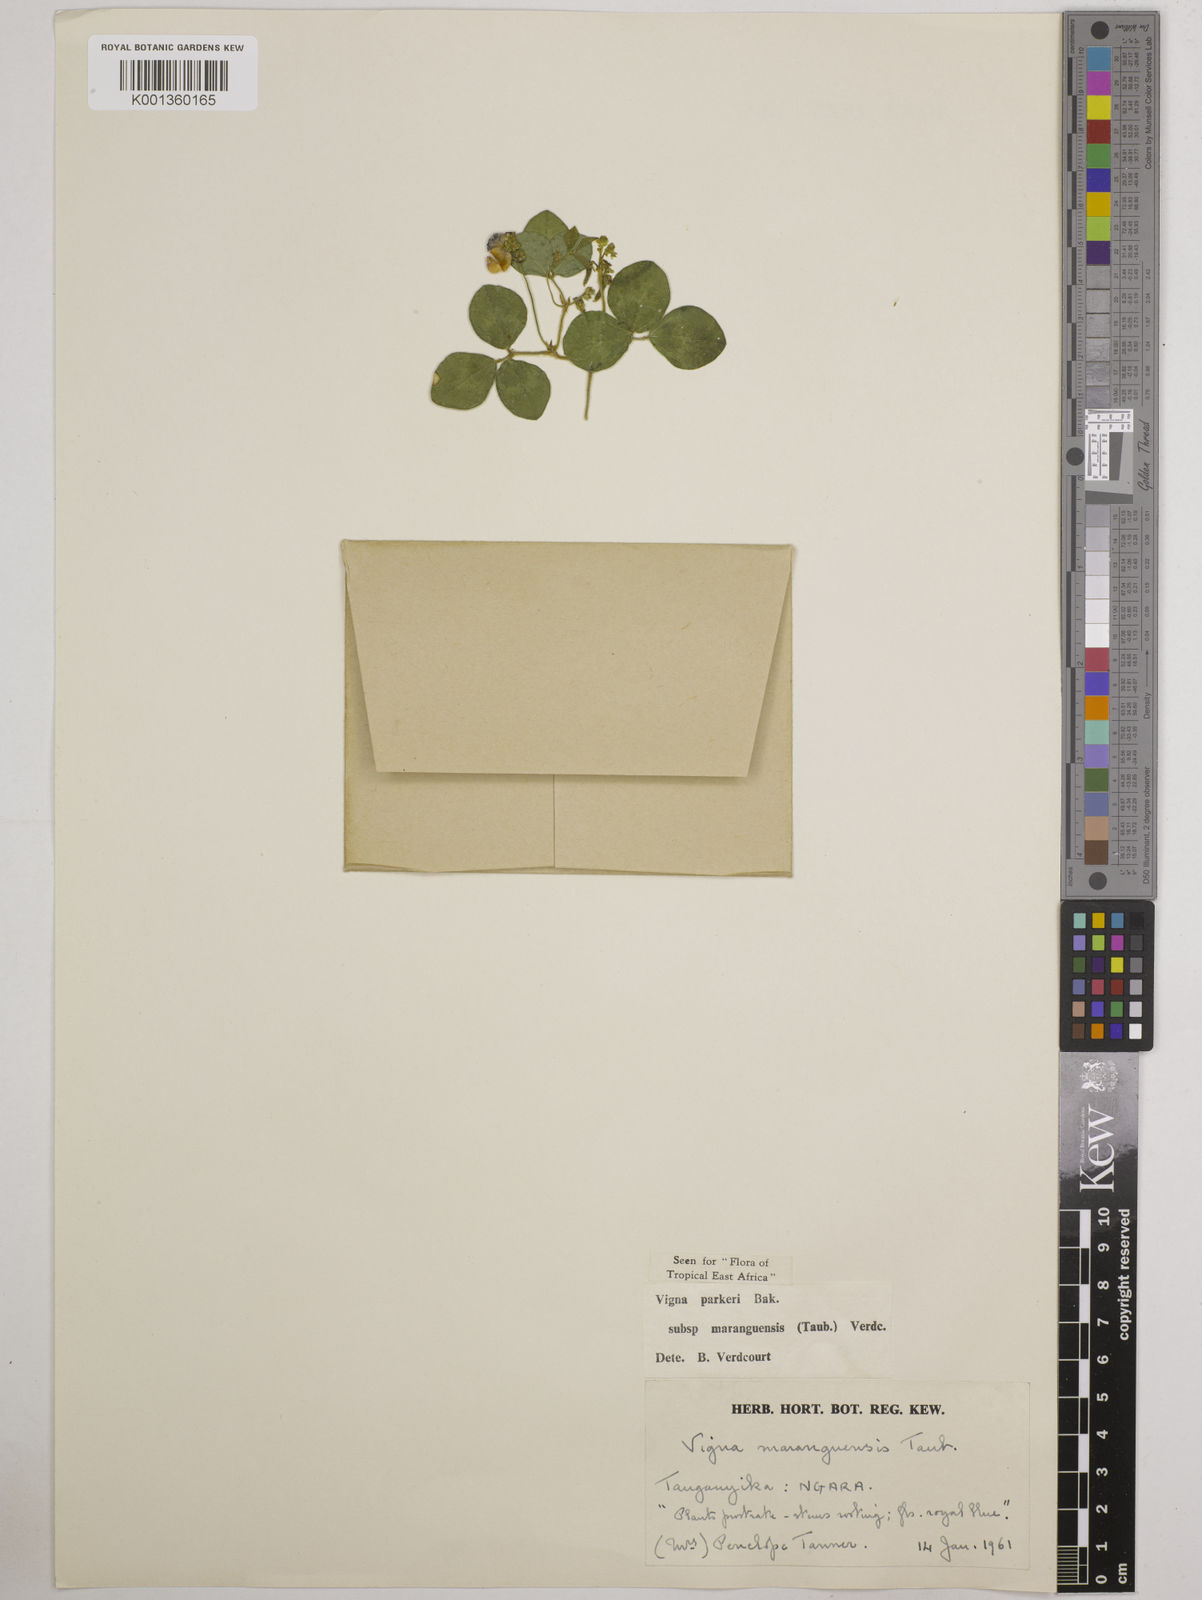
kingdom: Plantae
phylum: Tracheophyta
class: Magnoliopsida
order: Fabales
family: Fabaceae
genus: Vigna
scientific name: Vigna
